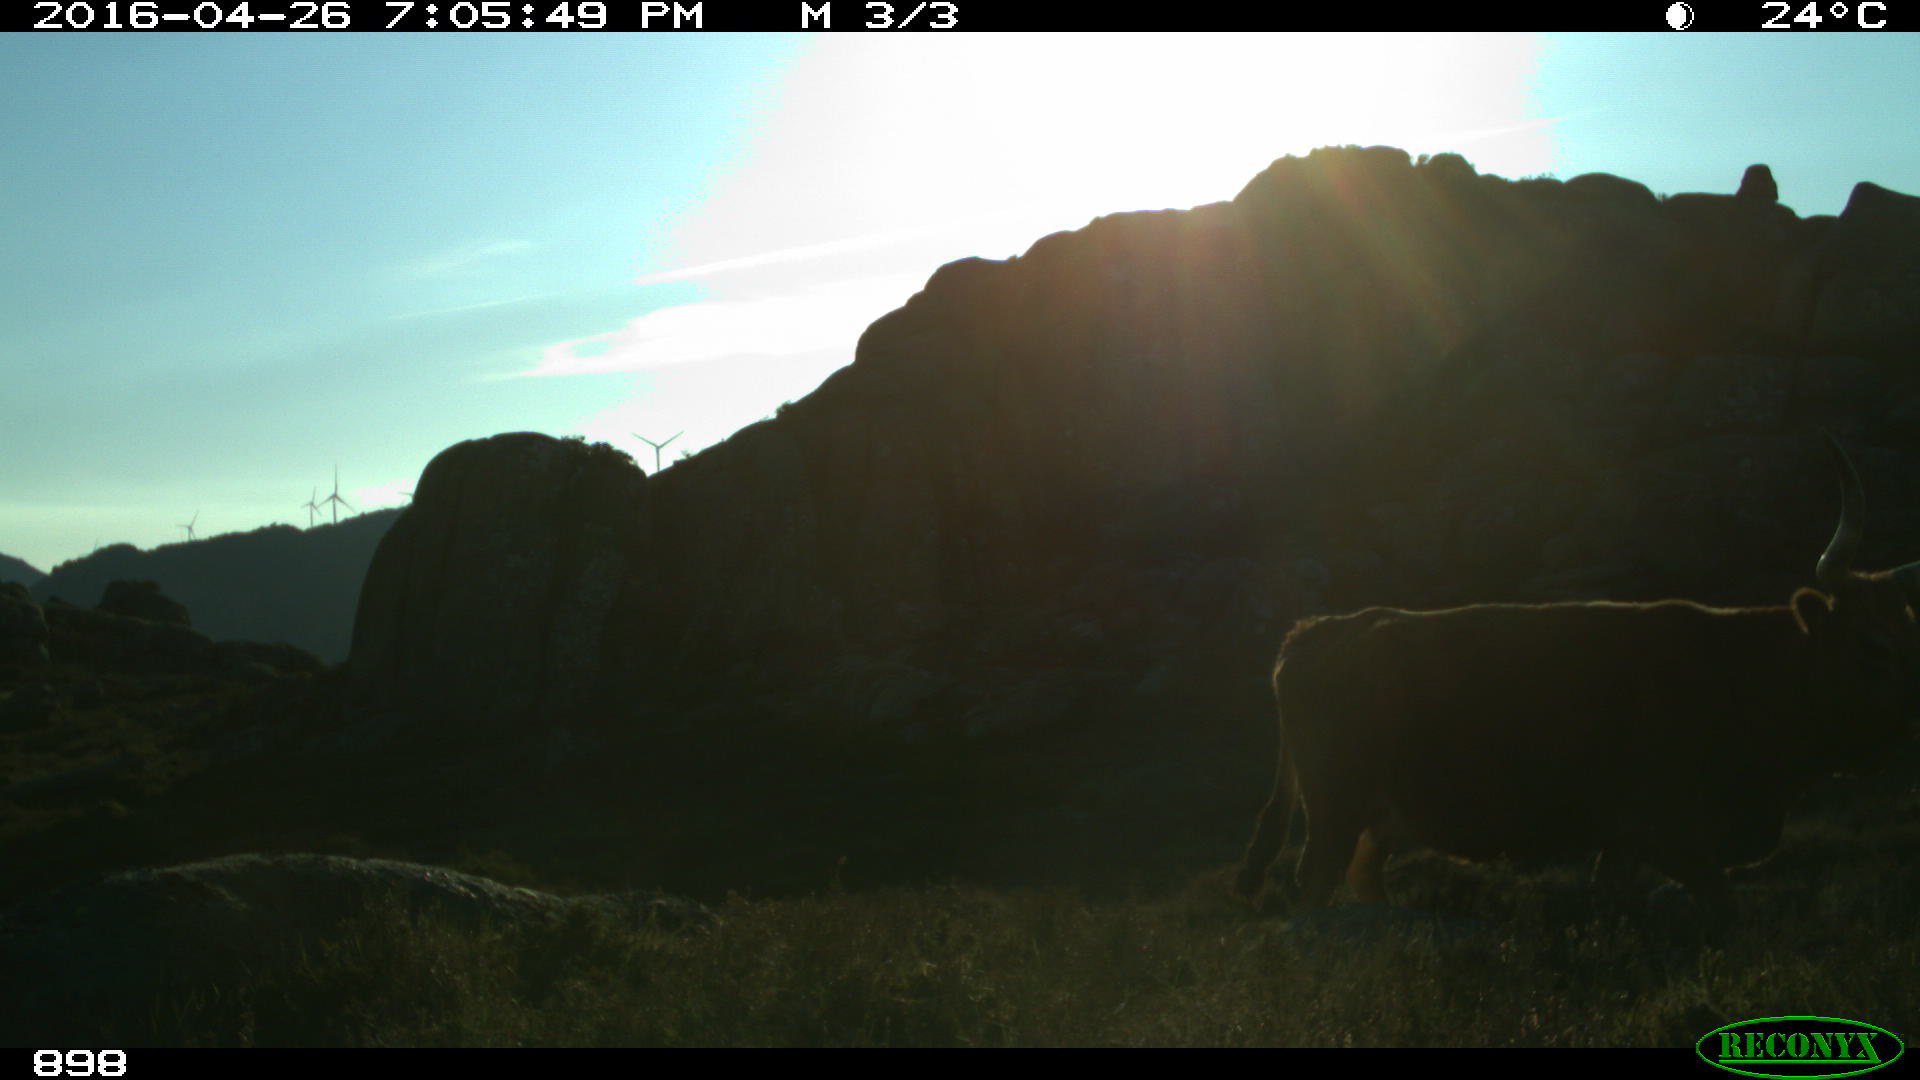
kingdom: Animalia
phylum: Chordata
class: Mammalia
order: Artiodactyla
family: Bovidae
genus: Bos
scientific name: Bos taurus
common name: Domesticated cattle
